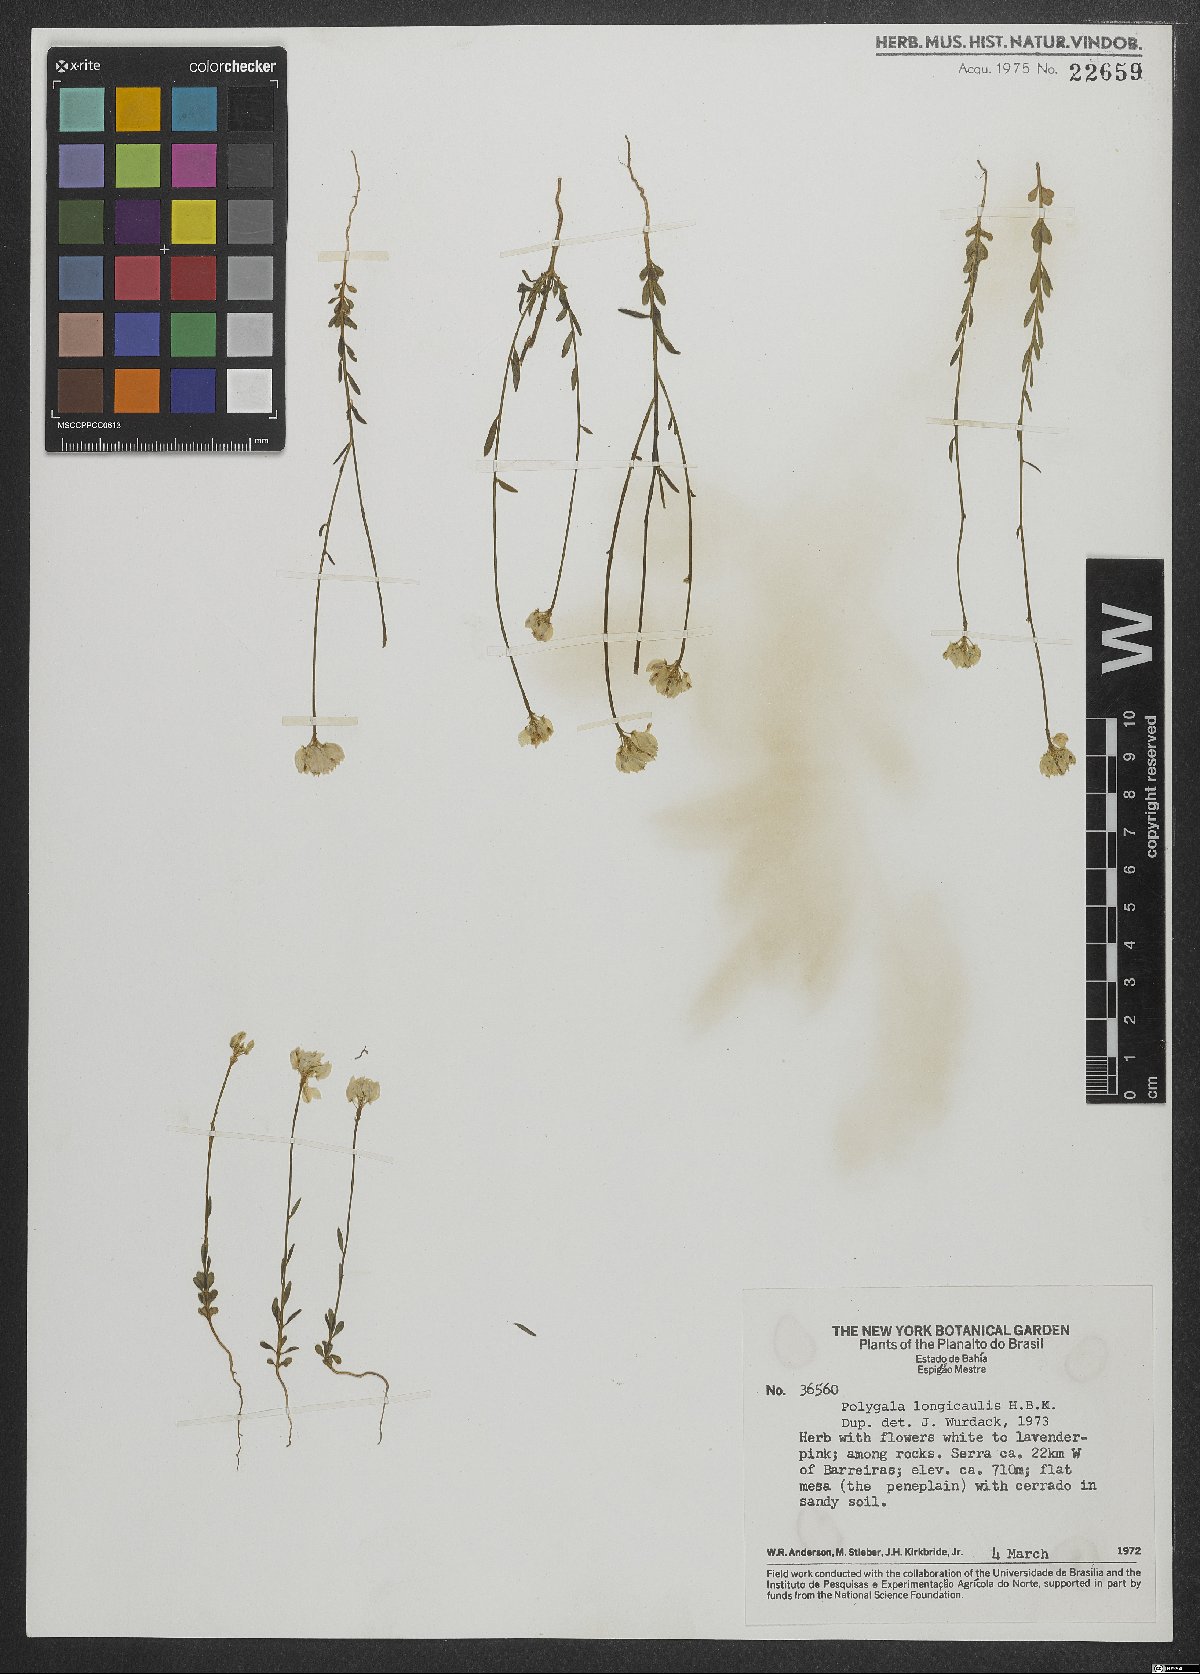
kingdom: Plantae
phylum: Tracheophyta
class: Magnoliopsida
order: Fabales
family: Polygalaceae
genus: Polygala
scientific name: Polygala longicaulis
